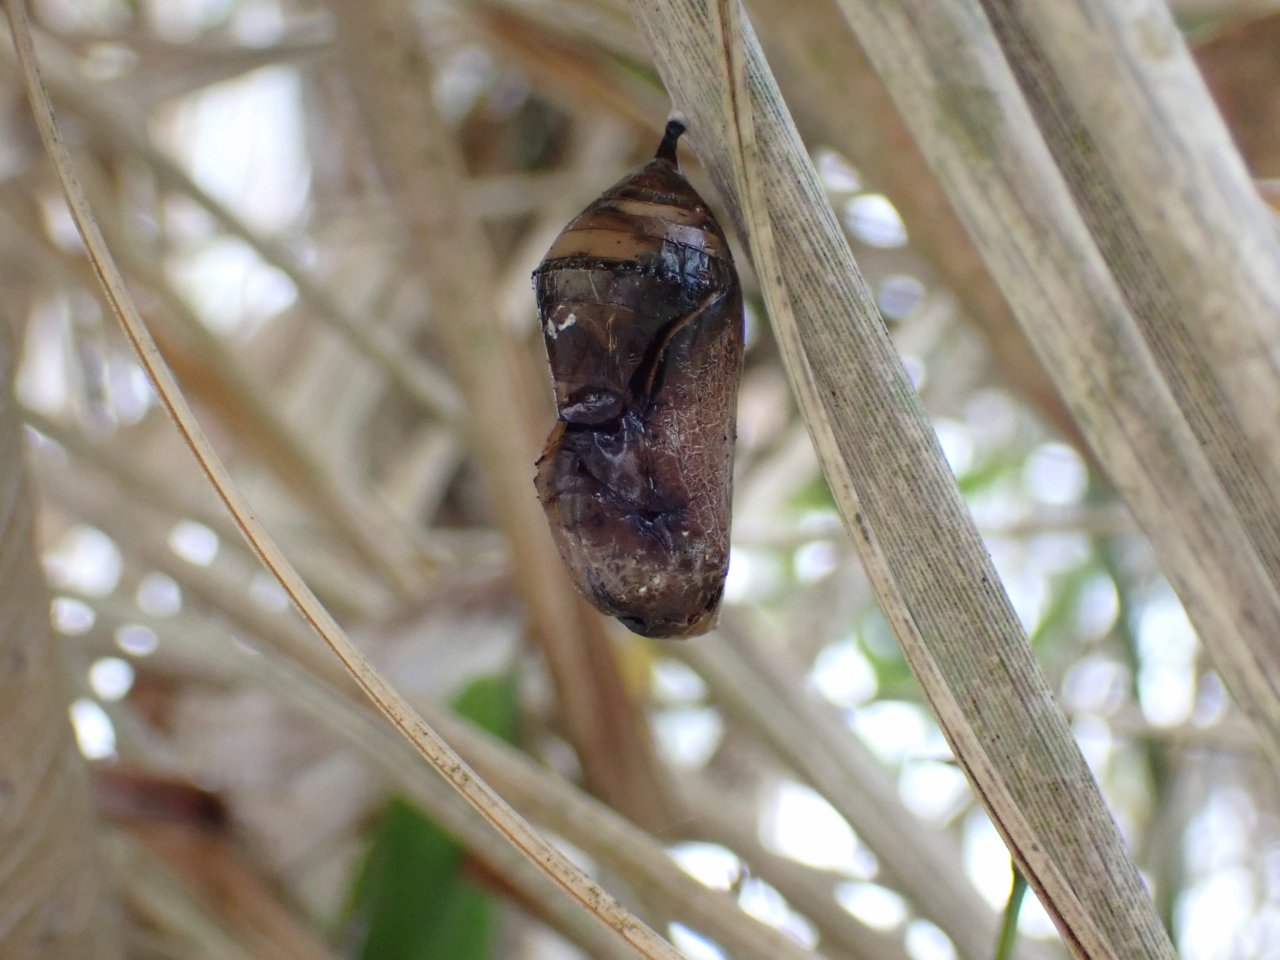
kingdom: Animalia
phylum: Arthropoda
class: Insecta
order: Lepidoptera
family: Nymphalidae
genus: Danaus
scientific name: Danaus plexippus
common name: Monarch
